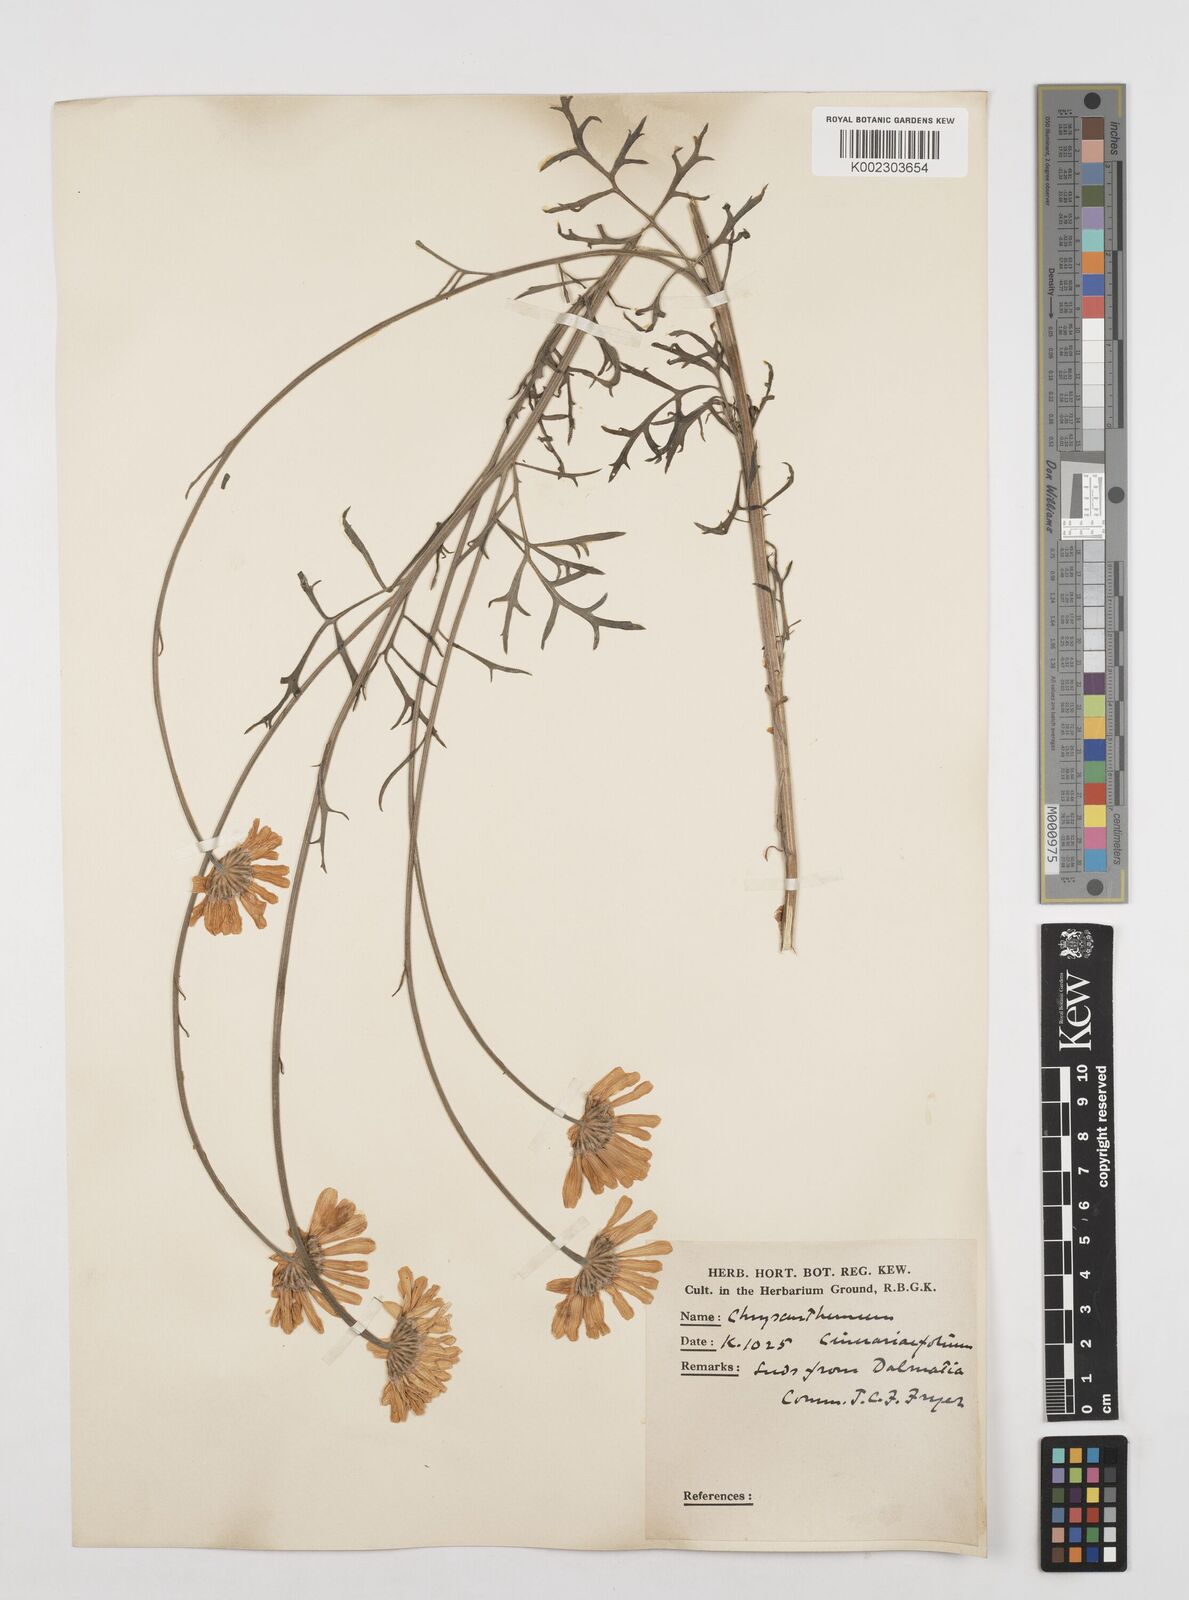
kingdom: Plantae
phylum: Tracheophyta
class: Magnoliopsida
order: Asterales
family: Asteraceae
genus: Tanacetum
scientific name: Tanacetum cinerariifolium
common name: Dalmatian pyrethrum
